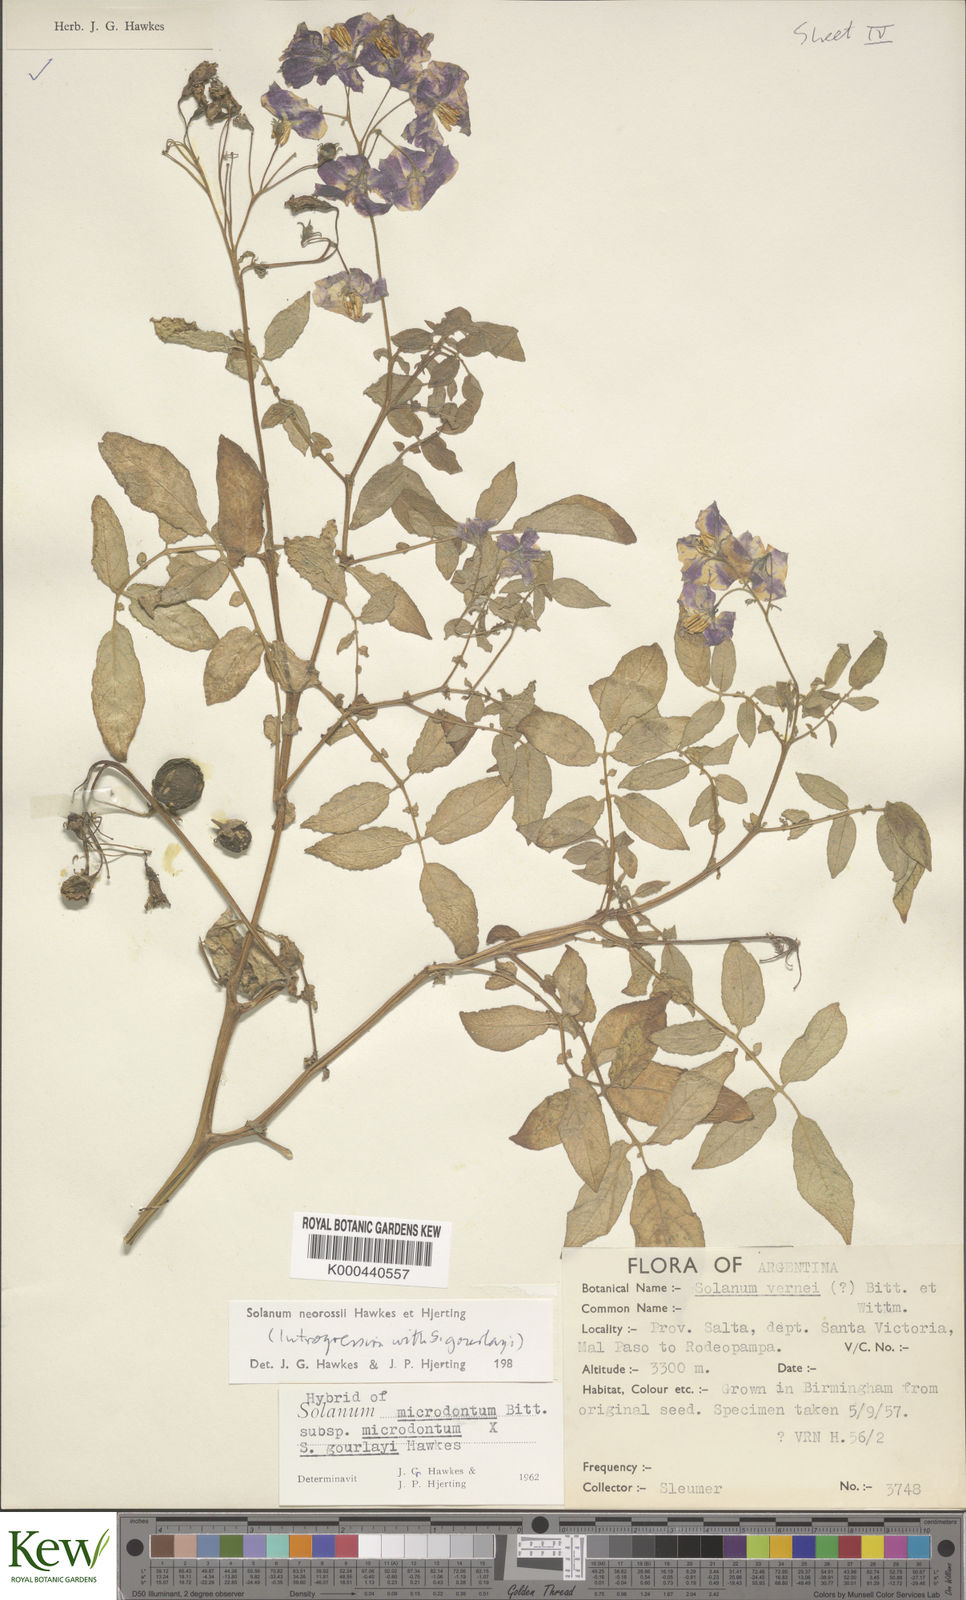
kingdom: Plantae
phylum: Tracheophyta
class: Magnoliopsida
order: Solanales
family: Solanaceae
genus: Solanum
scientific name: Solanum neorossii
